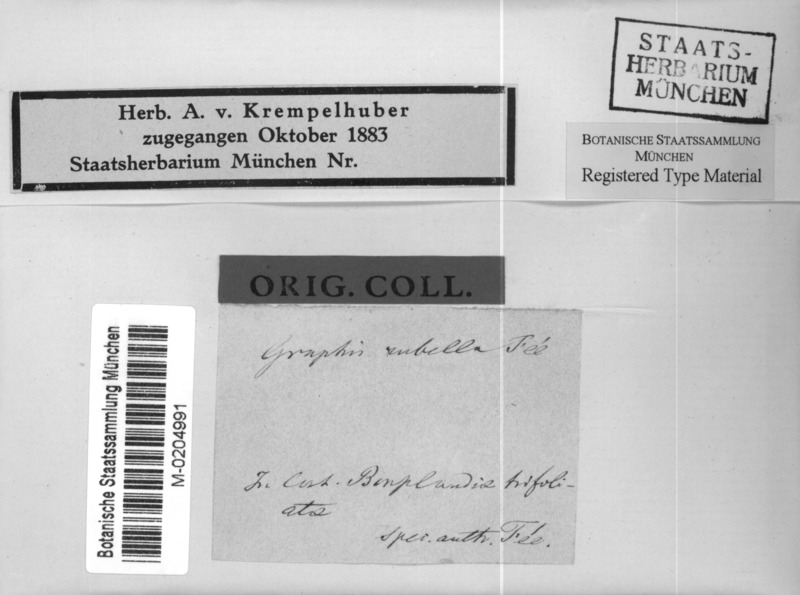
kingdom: Fungi
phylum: Ascomycota
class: Arthoniomycetes
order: Arthoniales
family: Arthoniaceae
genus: Arthonia
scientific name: Arthonia rubella
